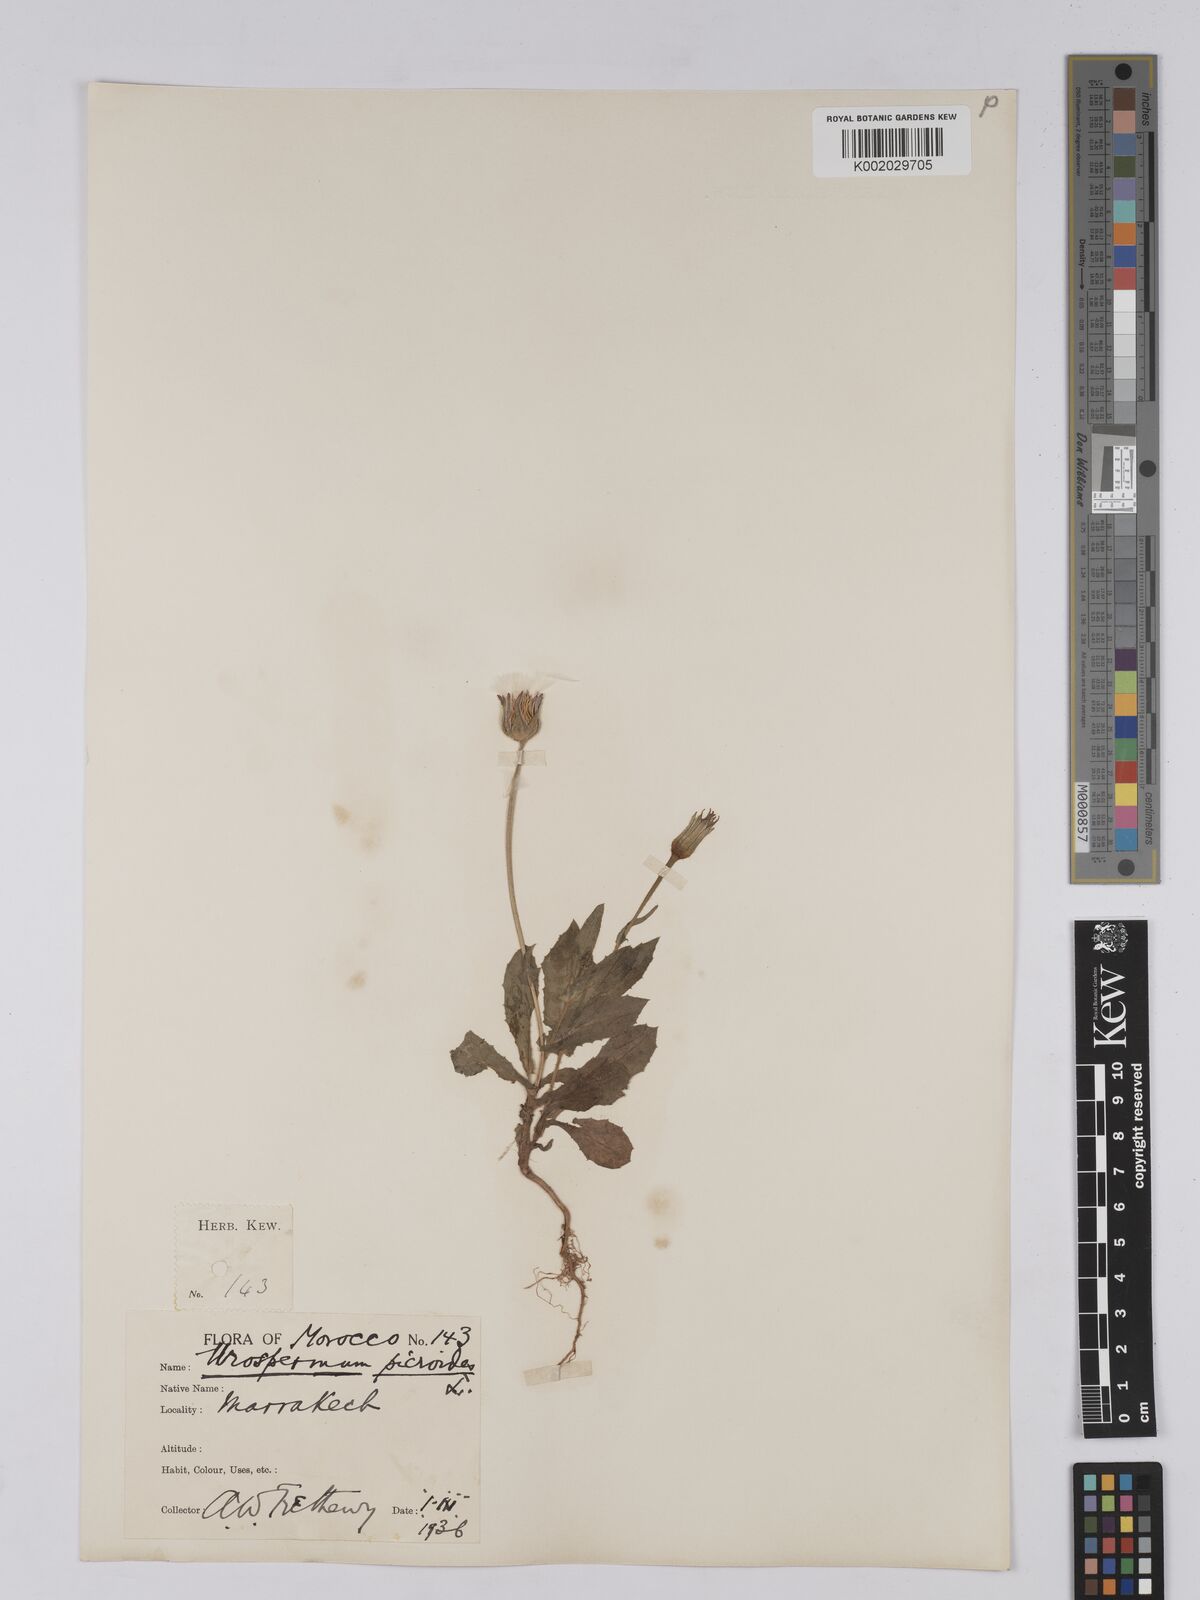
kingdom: Plantae
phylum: Tracheophyta
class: Magnoliopsida
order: Asterales
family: Asteraceae
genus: Urospermum
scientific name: Urospermum picroides
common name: False hawkbit
